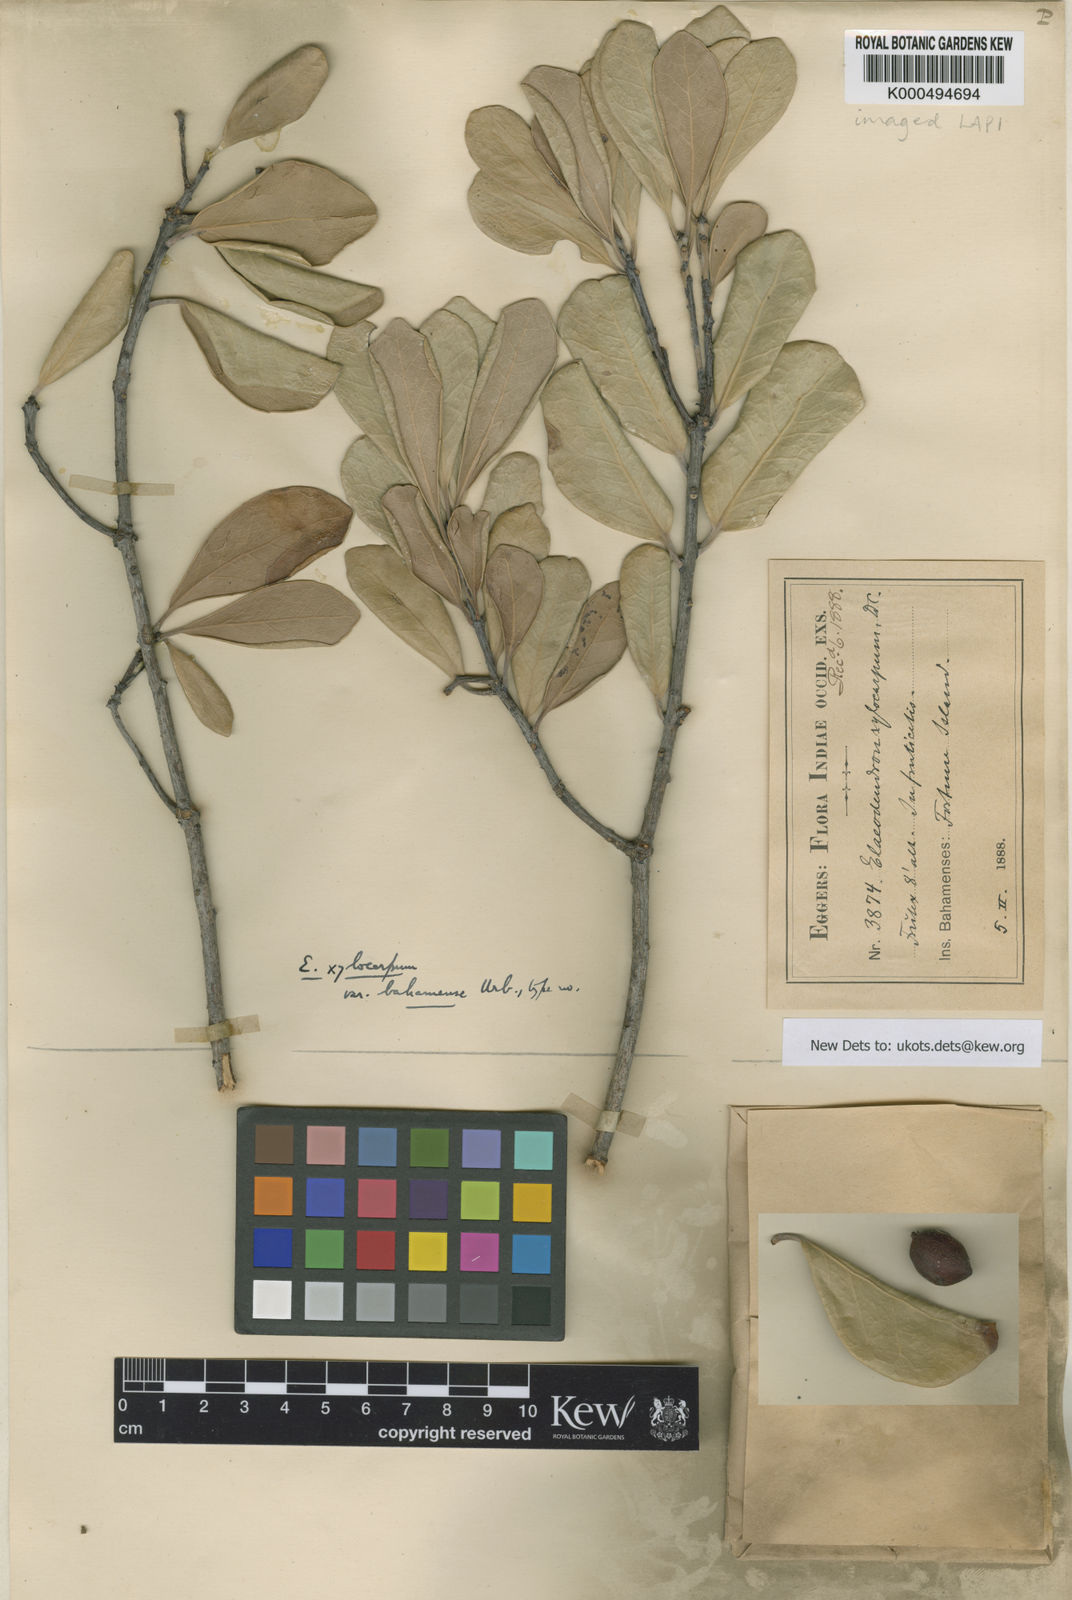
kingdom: Plantae
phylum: Tracheophyta
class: Magnoliopsida
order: Celastrales
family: Celastraceae
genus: Elaeodendron
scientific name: Elaeodendron xylocarpum
